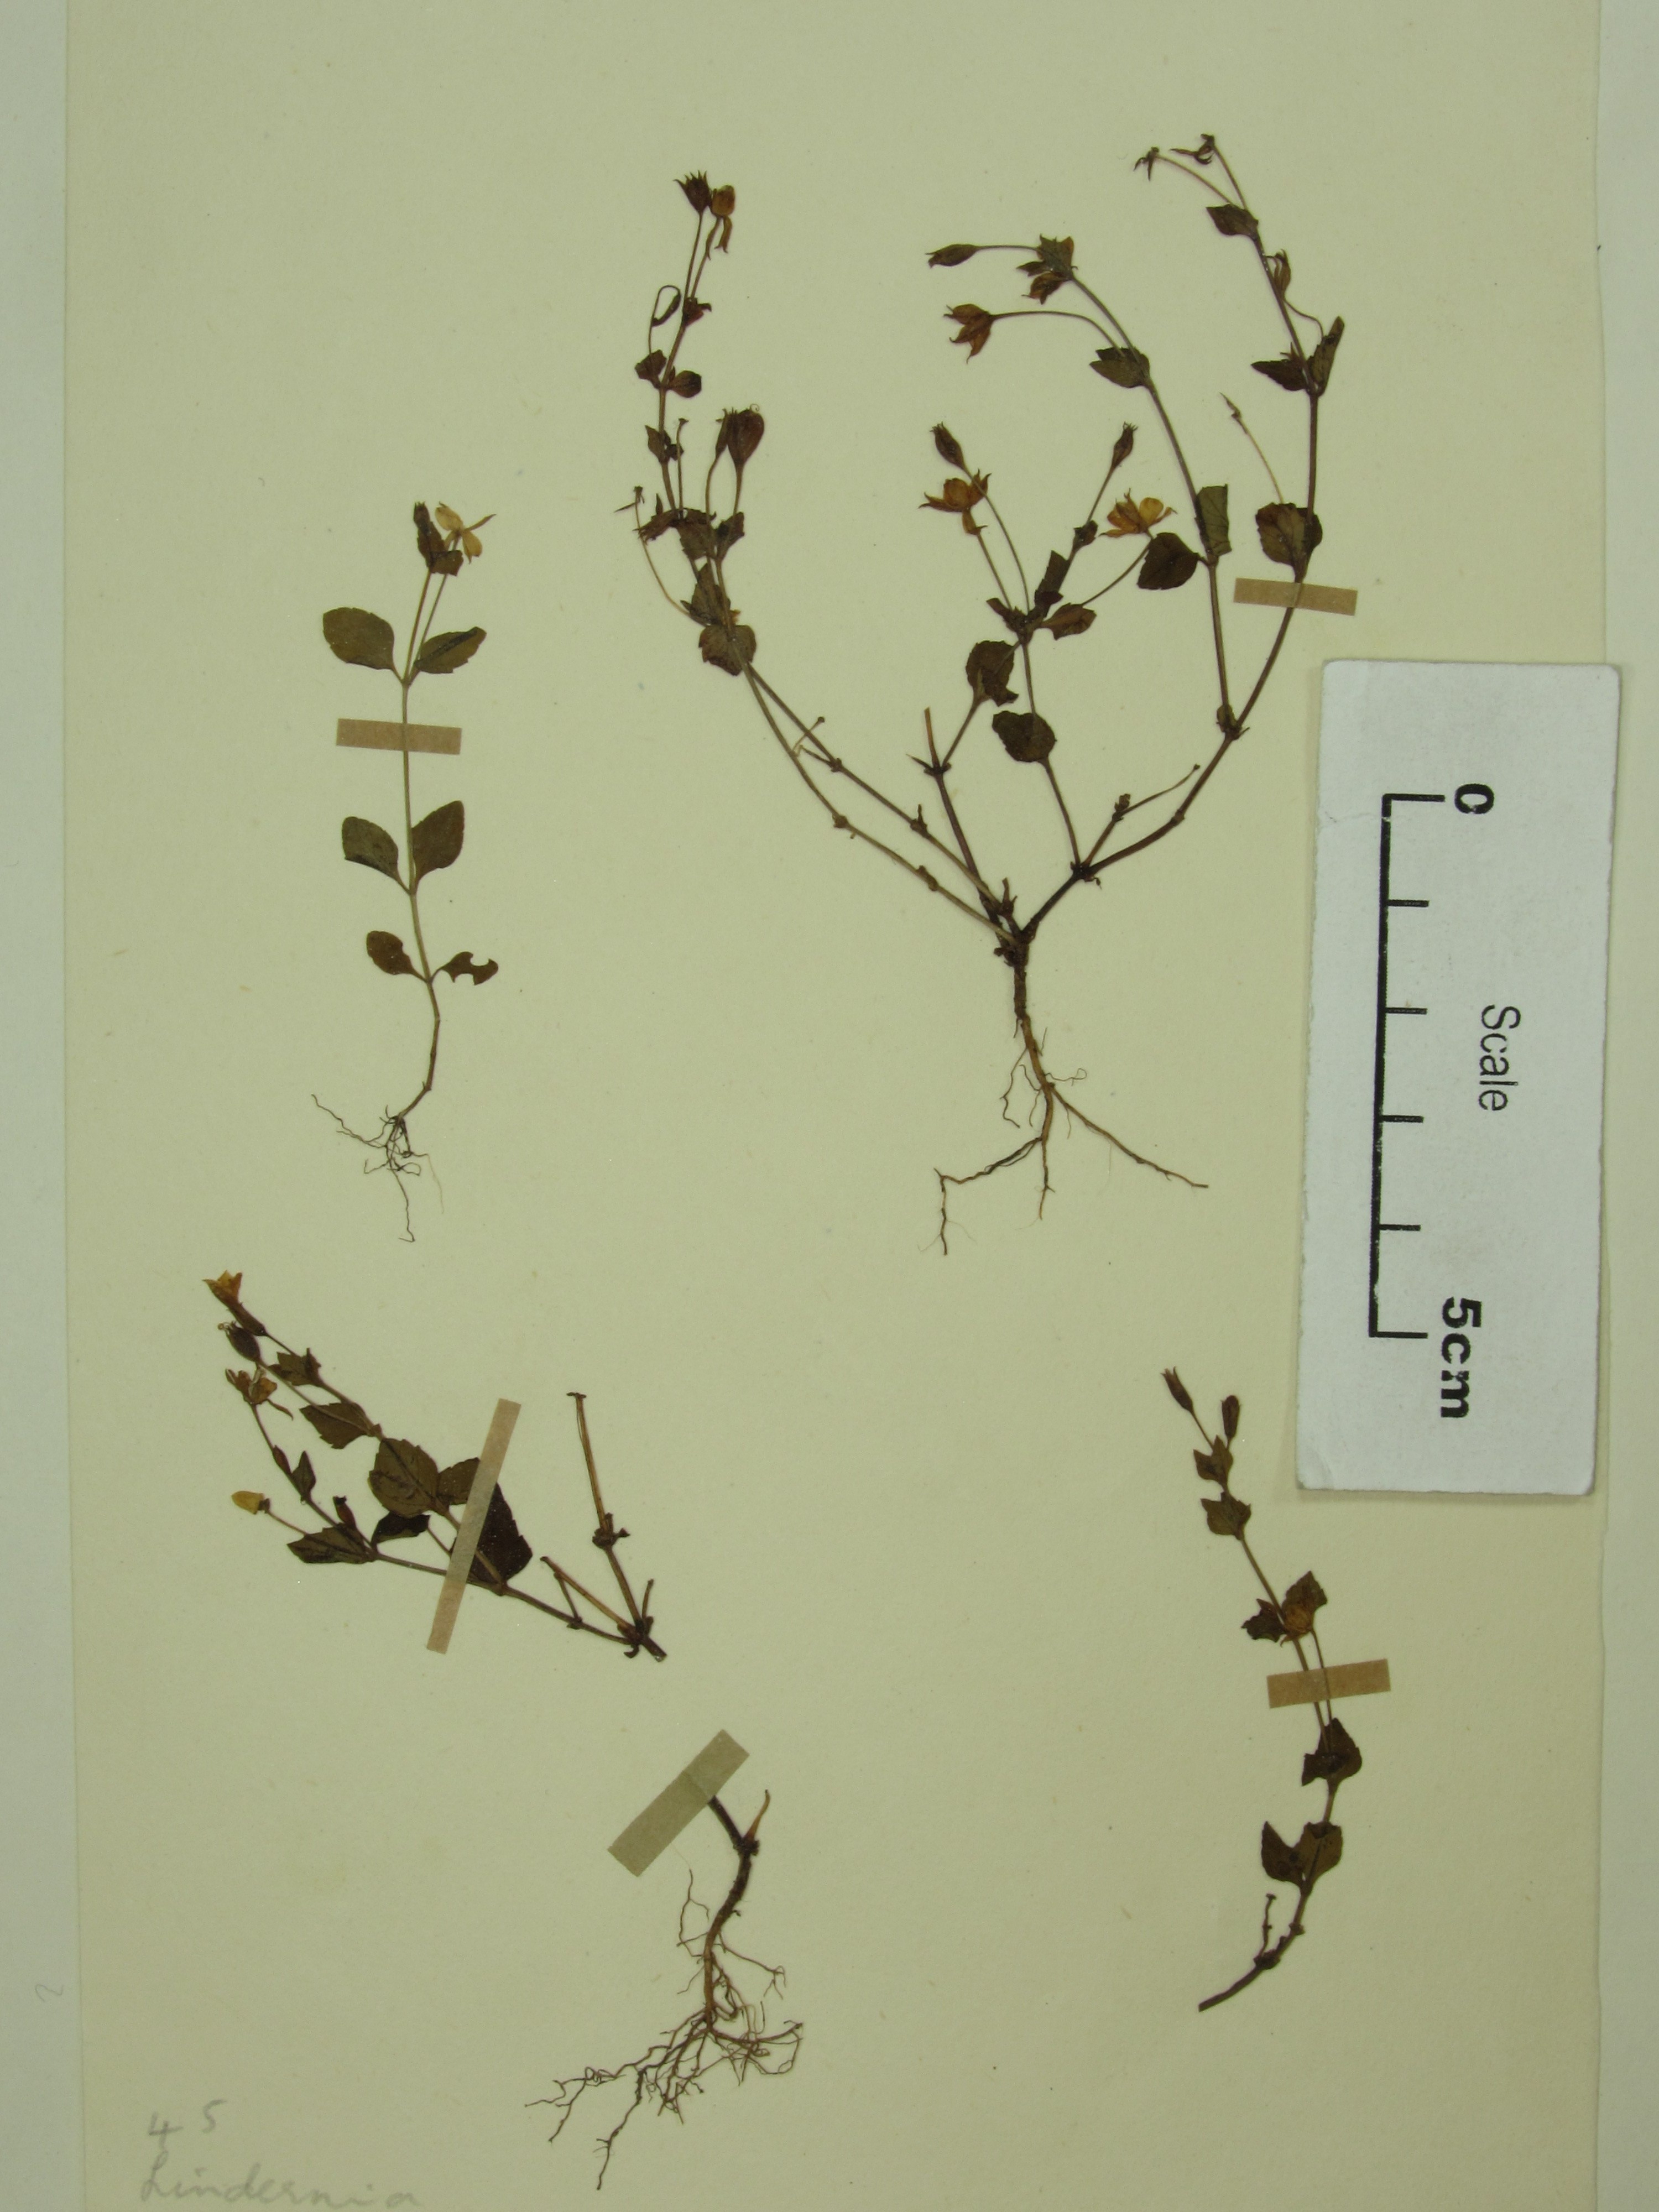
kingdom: Plantae
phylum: Tracheophyta
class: Magnoliopsida
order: Lamiales
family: Linderniaceae
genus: Torenia
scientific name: Torenia crustacea
